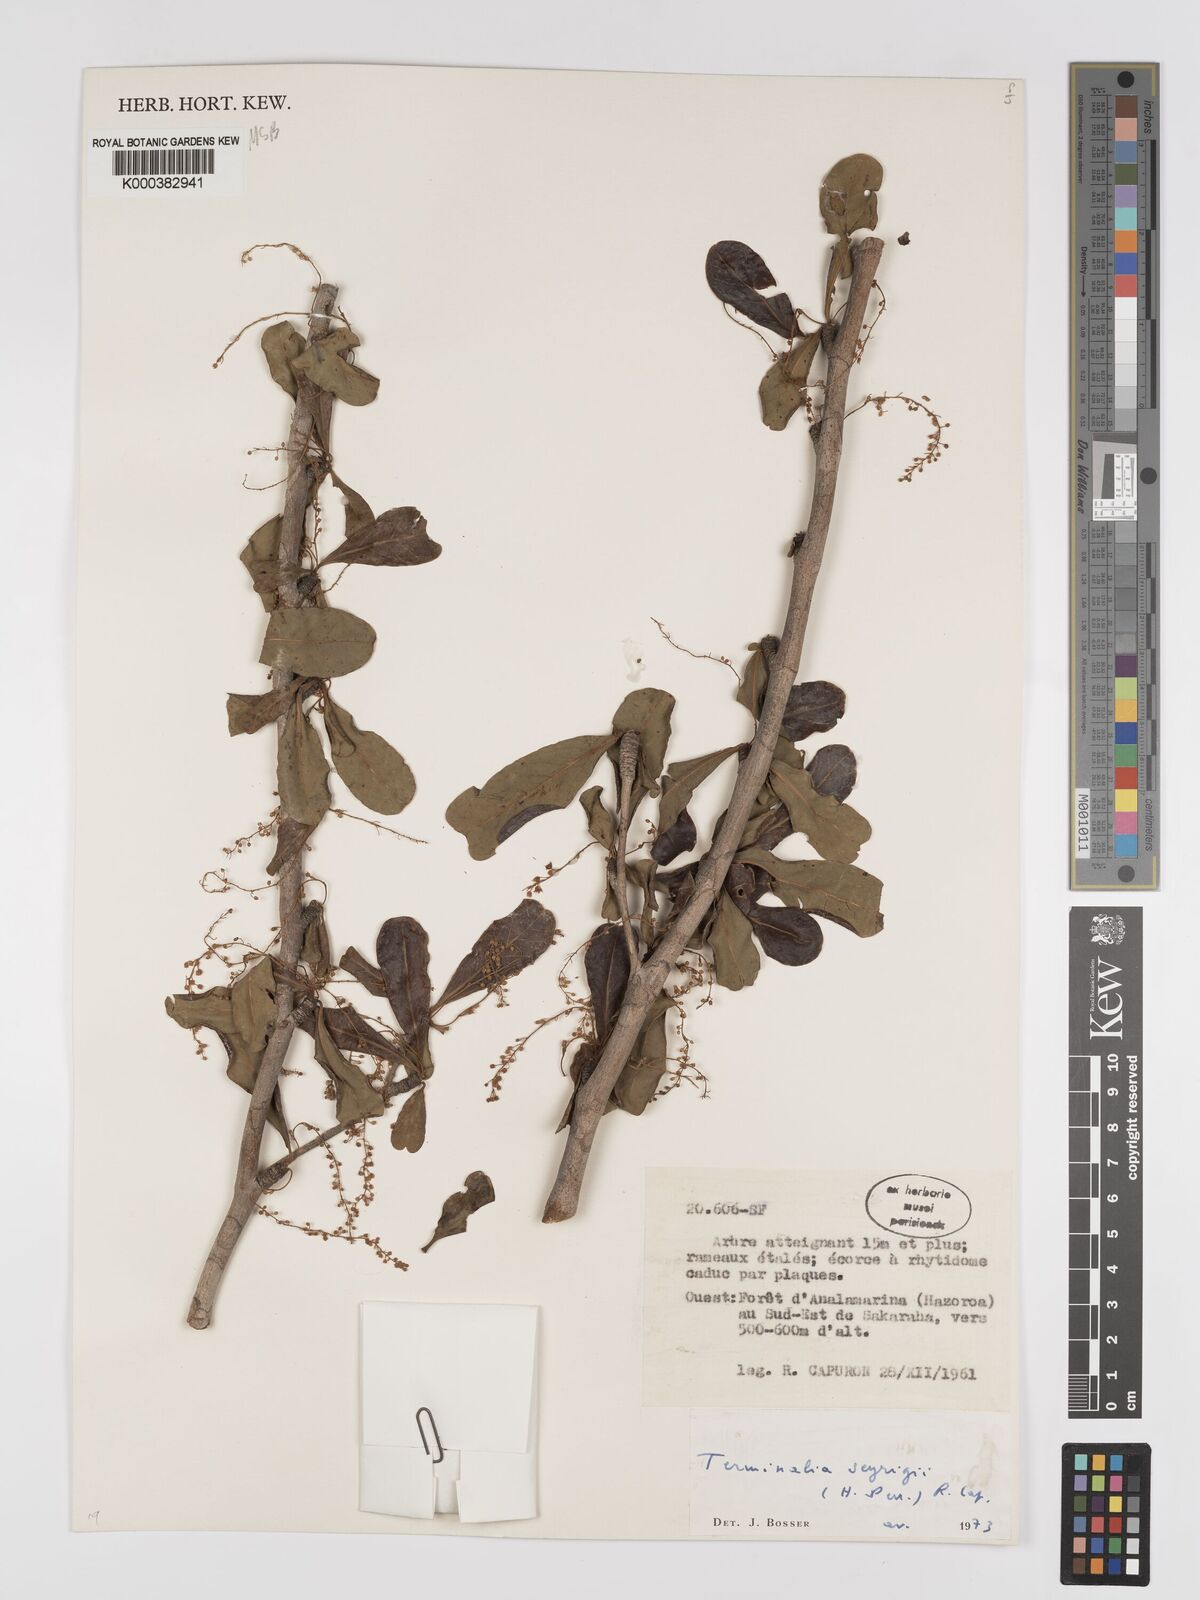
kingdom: Plantae
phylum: Tracheophyta
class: Magnoliopsida
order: Myrtales
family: Combretaceae
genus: Terminalia
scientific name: Terminalia seyrigii
